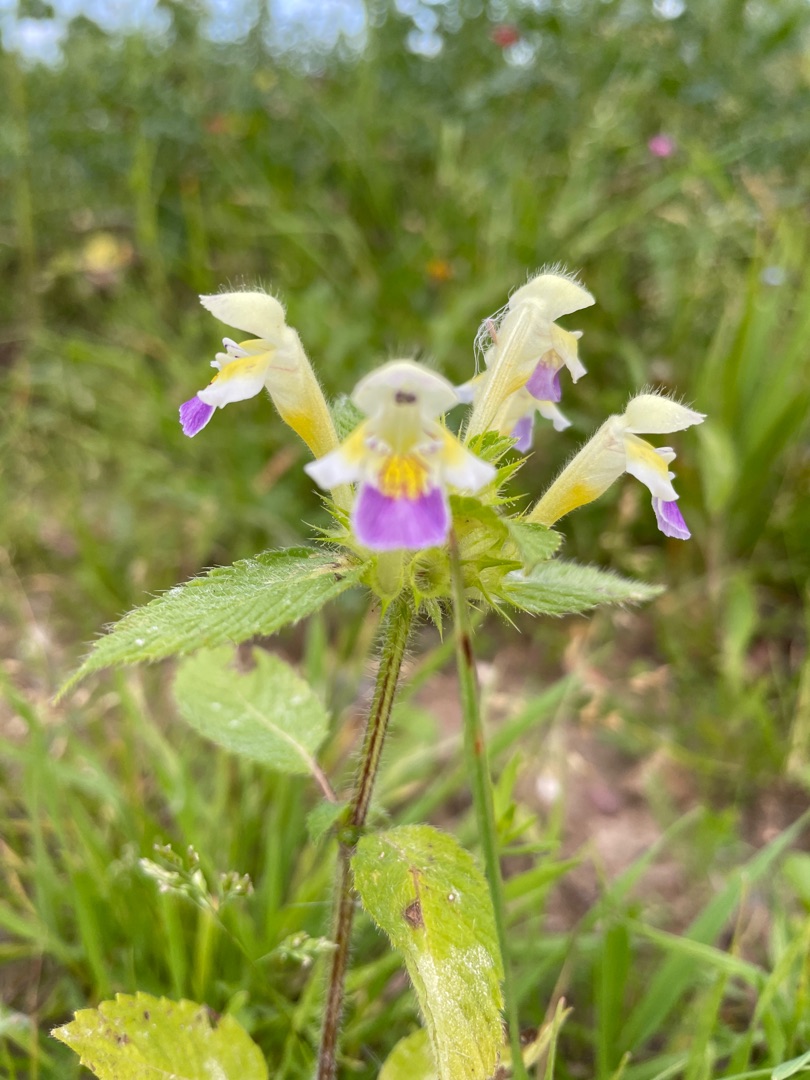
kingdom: Plantae
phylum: Tracheophyta
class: Magnoliopsida
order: Lamiales
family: Lamiaceae
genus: Galeopsis
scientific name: Galeopsis speciosa
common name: Hamp-hanekro
